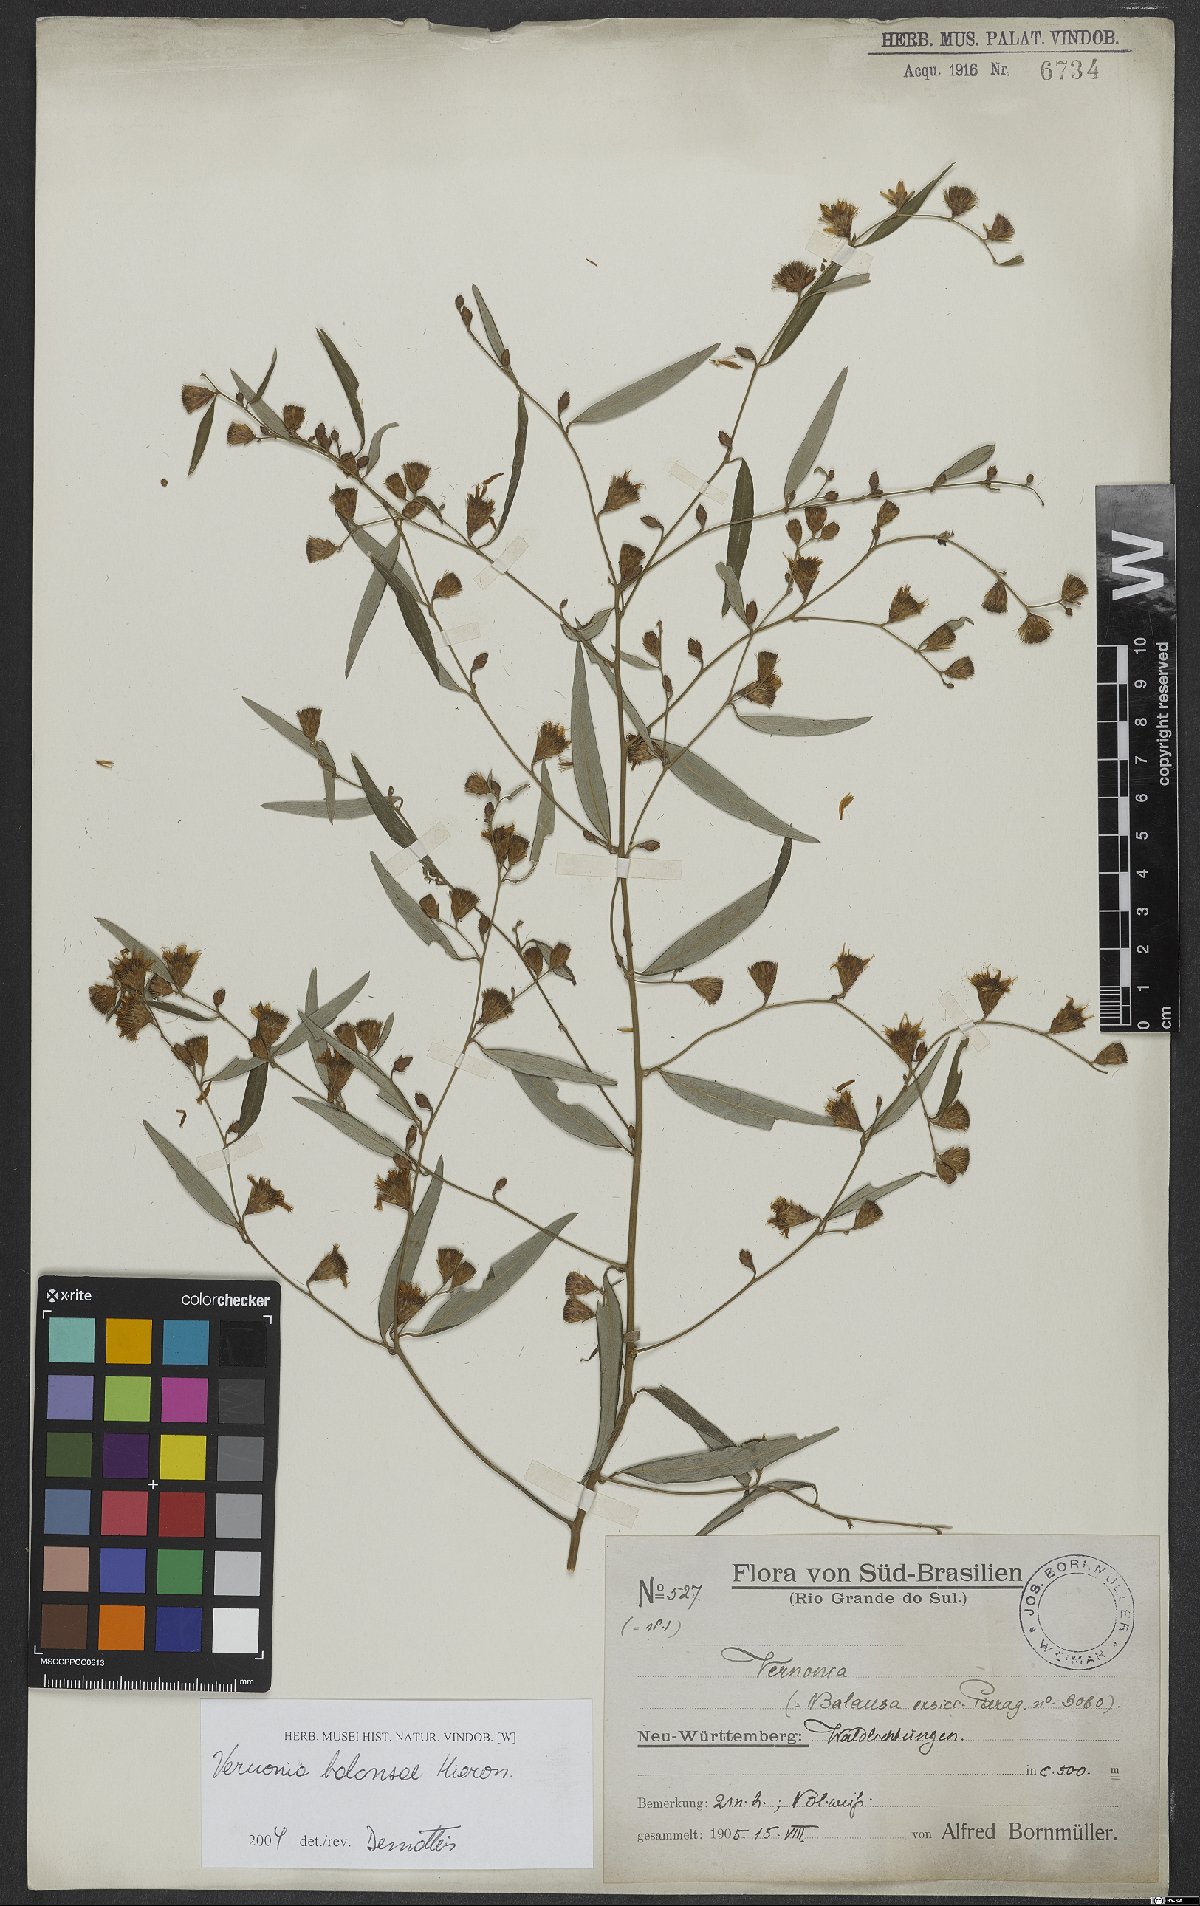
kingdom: Plantae
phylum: Tracheophyta
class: Magnoliopsida
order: Asterales
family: Asteraceae
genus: Lepidaploa
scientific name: Lepidaploa balansae
